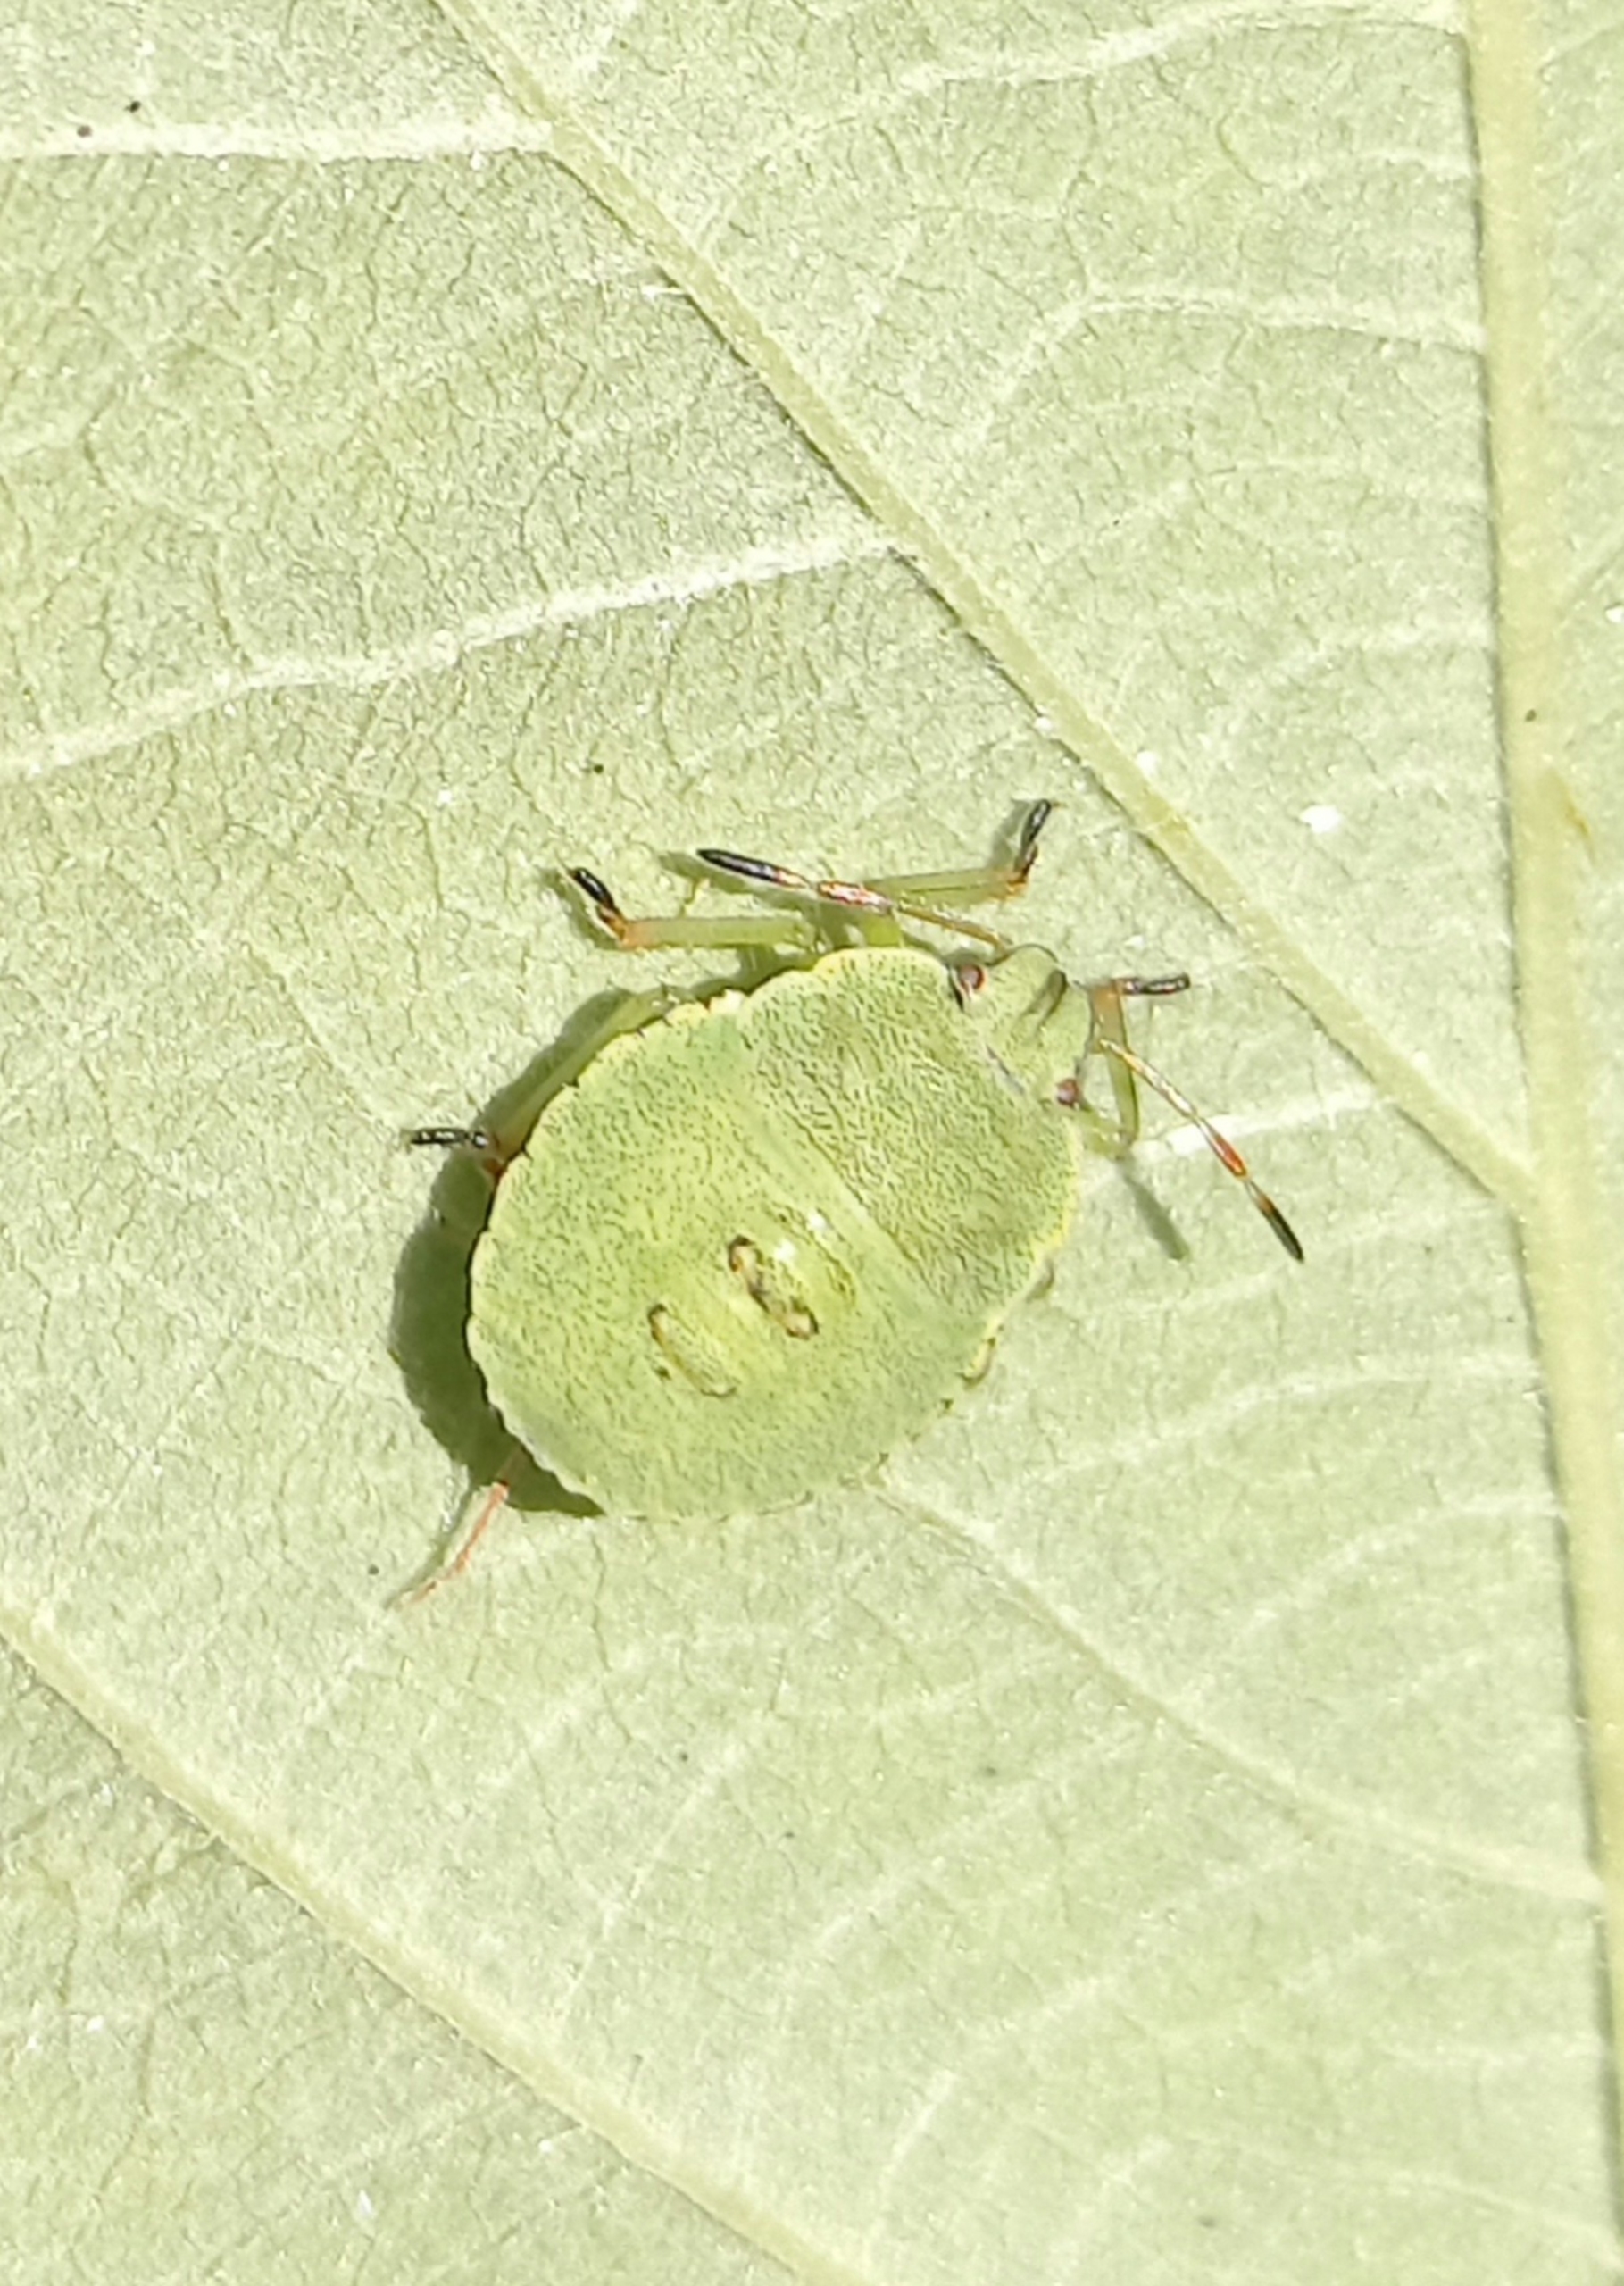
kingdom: Animalia
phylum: Arthropoda
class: Insecta
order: Hemiptera
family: Pentatomidae
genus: Palomena
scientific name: Palomena prasina
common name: Grøn bredtæge
